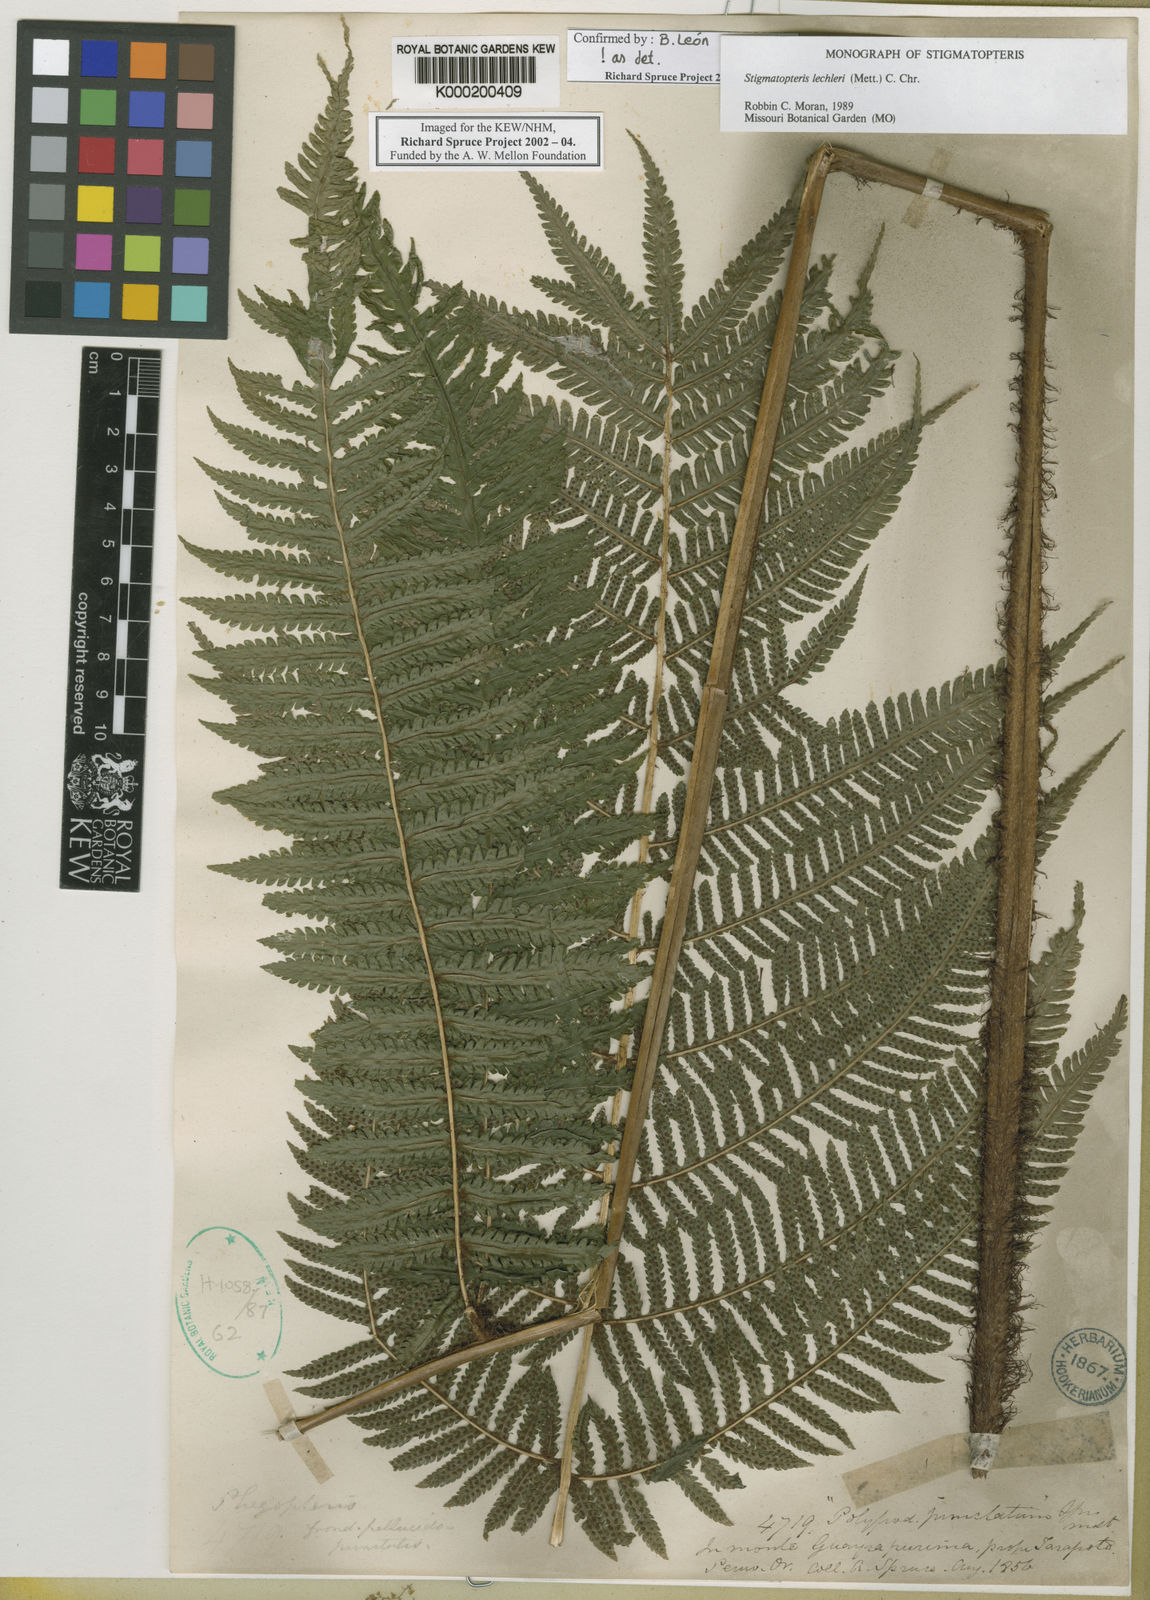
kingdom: Plantae
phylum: Tracheophyta
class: Polypodiopsida
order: Polypodiales
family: Dryopteridaceae
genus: Stigmatopteris
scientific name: Stigmatopteris lechleri
